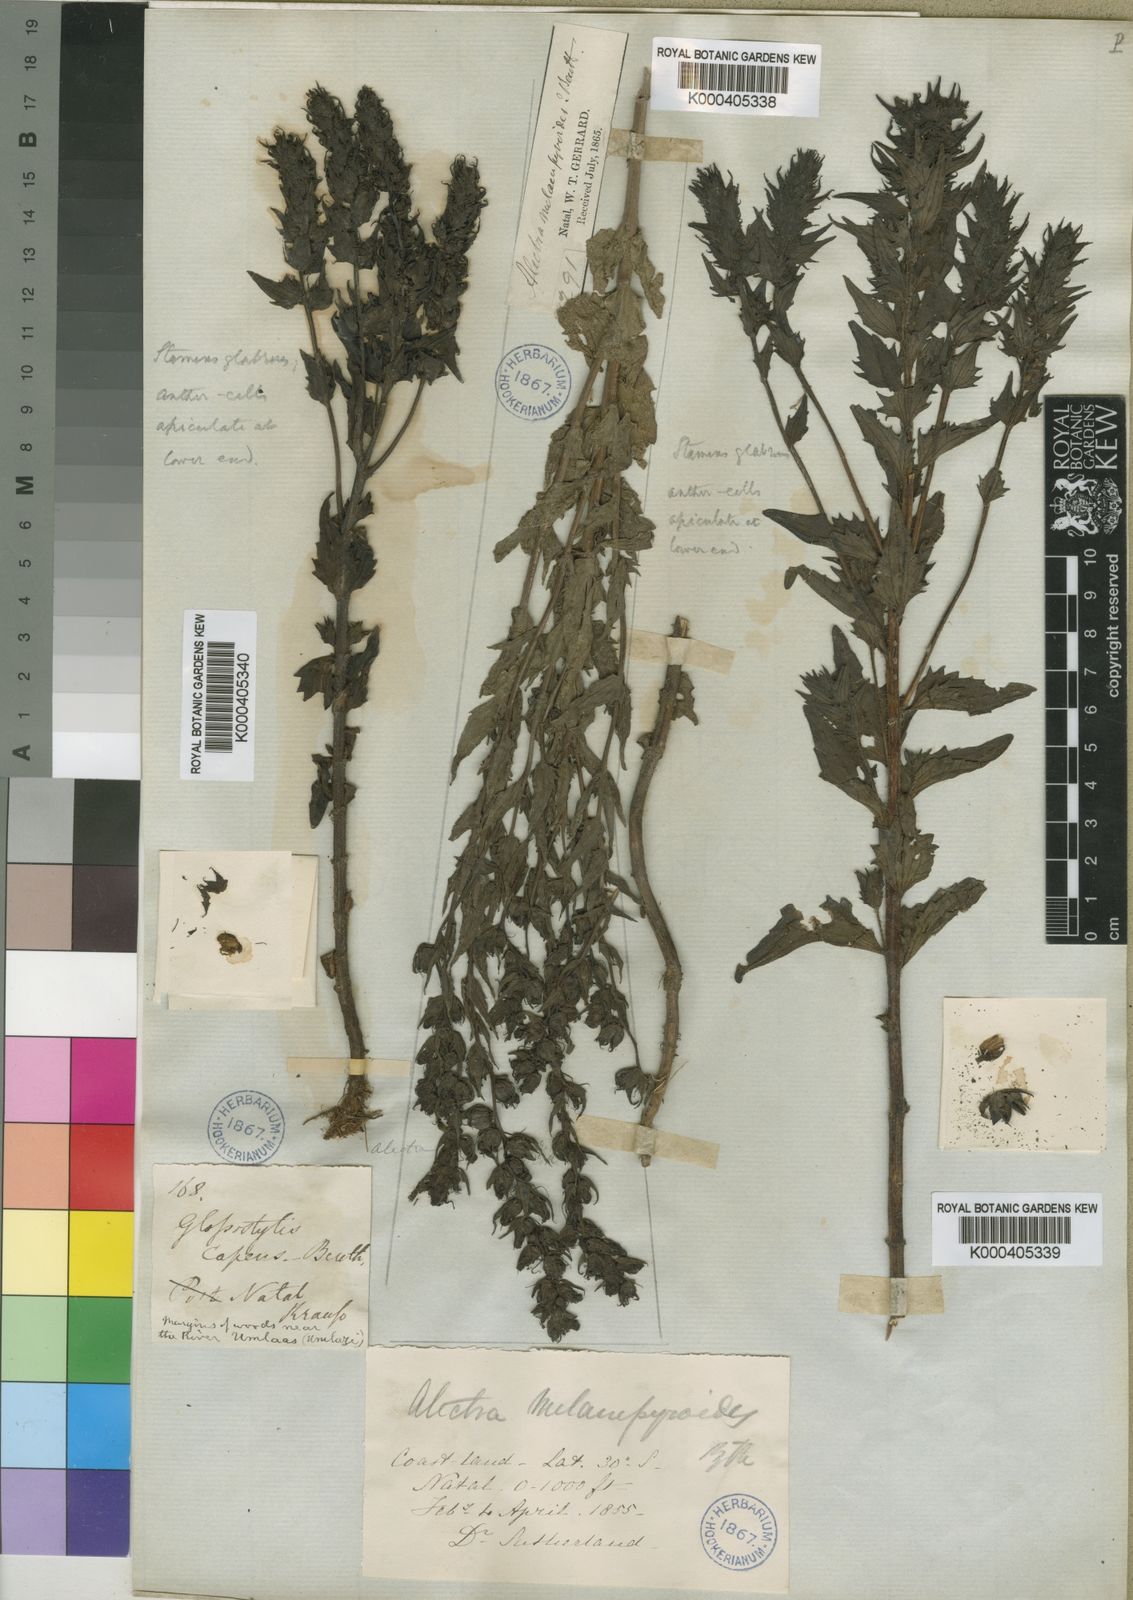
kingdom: Plantae
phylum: Tracheophyta
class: Magnoliopsida
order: Lamiales
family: Orobanchaceae
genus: Alectra
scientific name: Alectra sessiliflora
